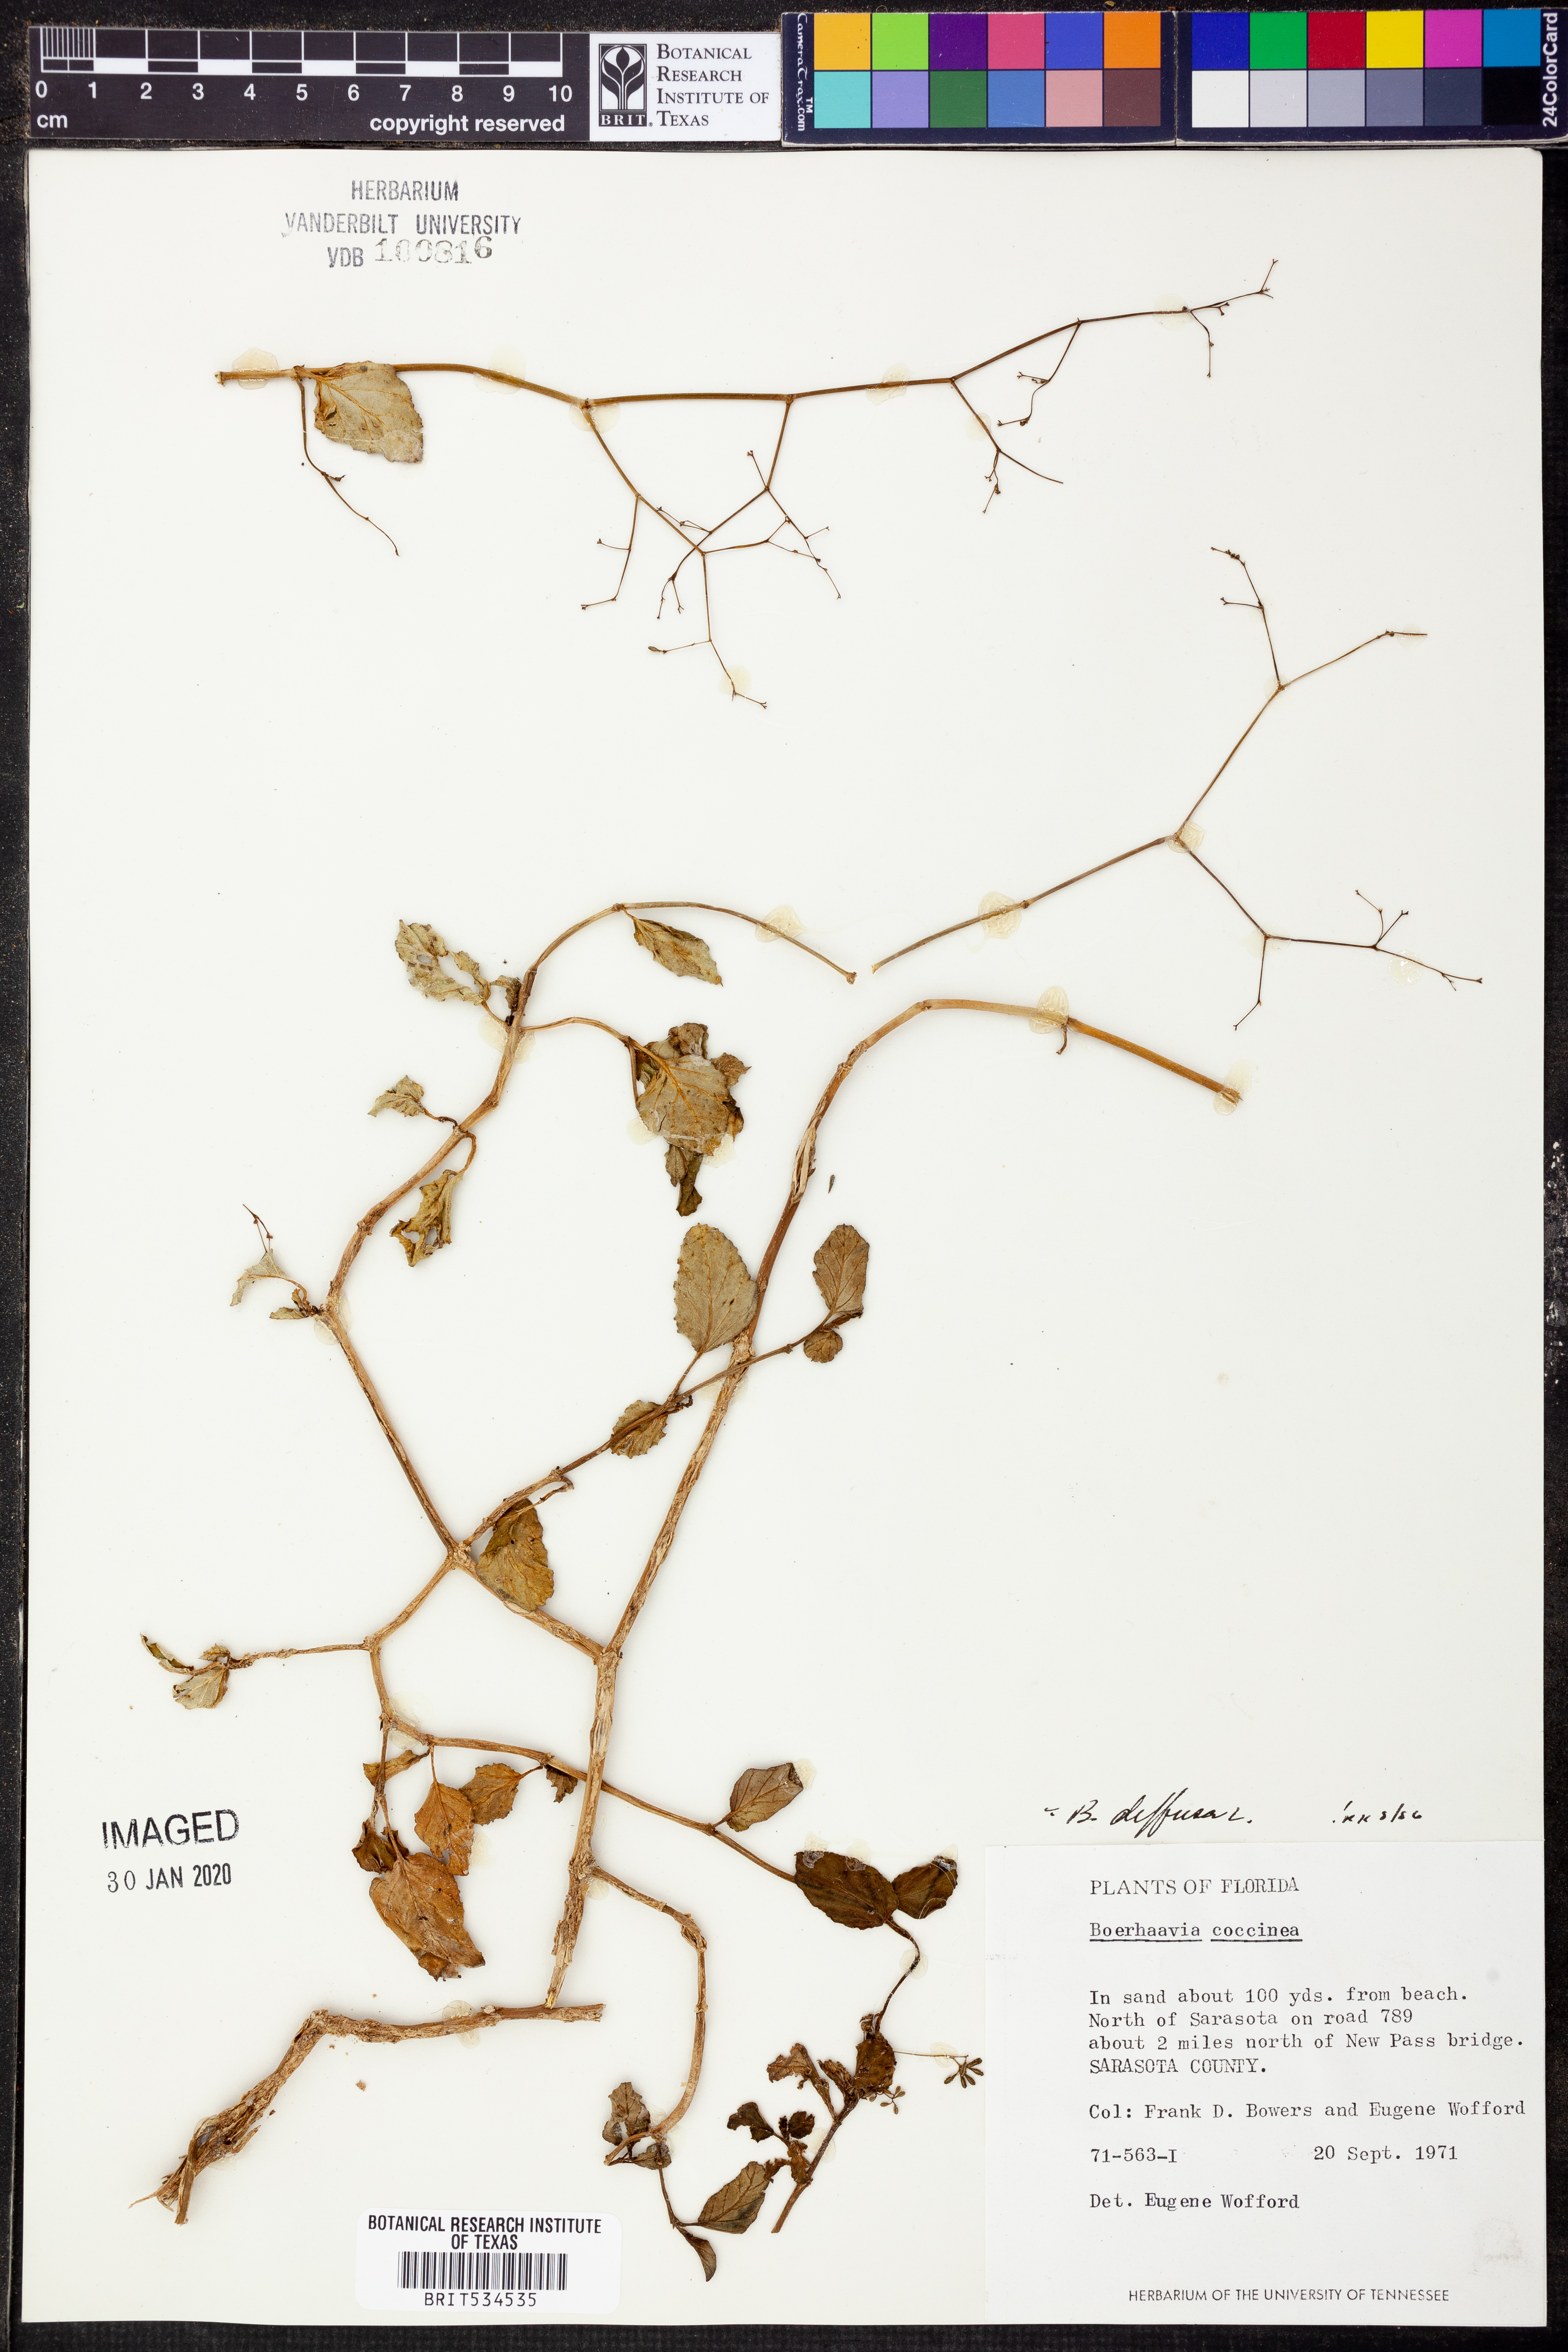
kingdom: Plantae
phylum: Tracheophyta
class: Magnoliopsida
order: Caryophyllales
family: Nyctaginaceae
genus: Boerhavia
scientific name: Boerhavia diffusa
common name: Red spiderling
